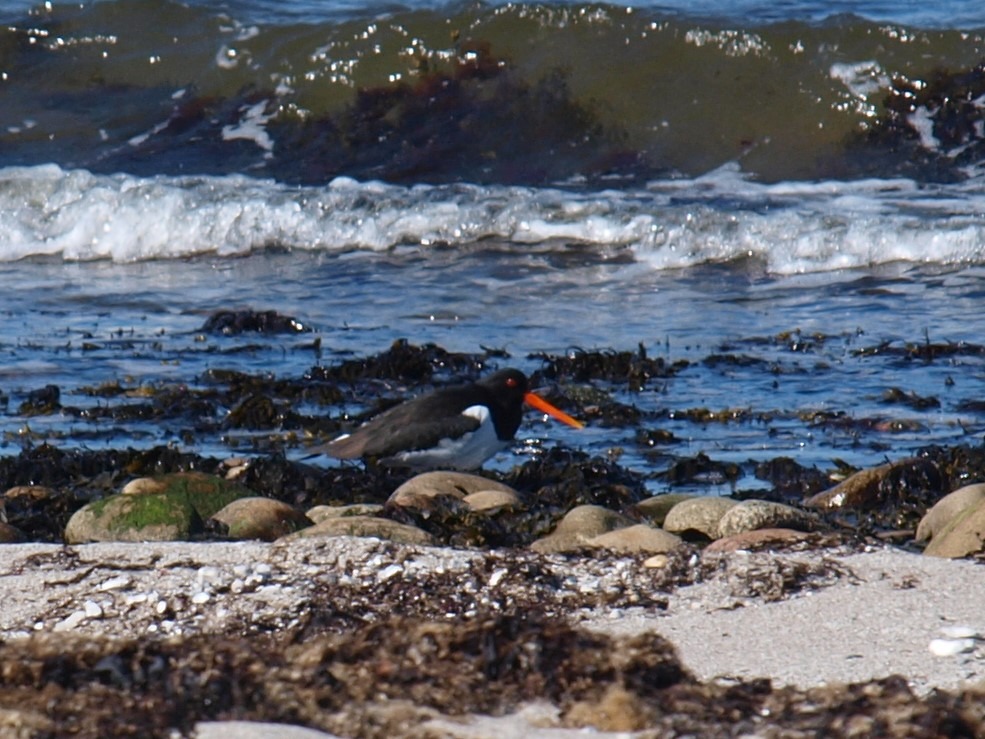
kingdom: Animalia
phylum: Chordata
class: Aves
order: Charadriiformes
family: Haematopodidae
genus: Haematopus
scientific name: Haematopus ostralegus
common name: Strandskade
